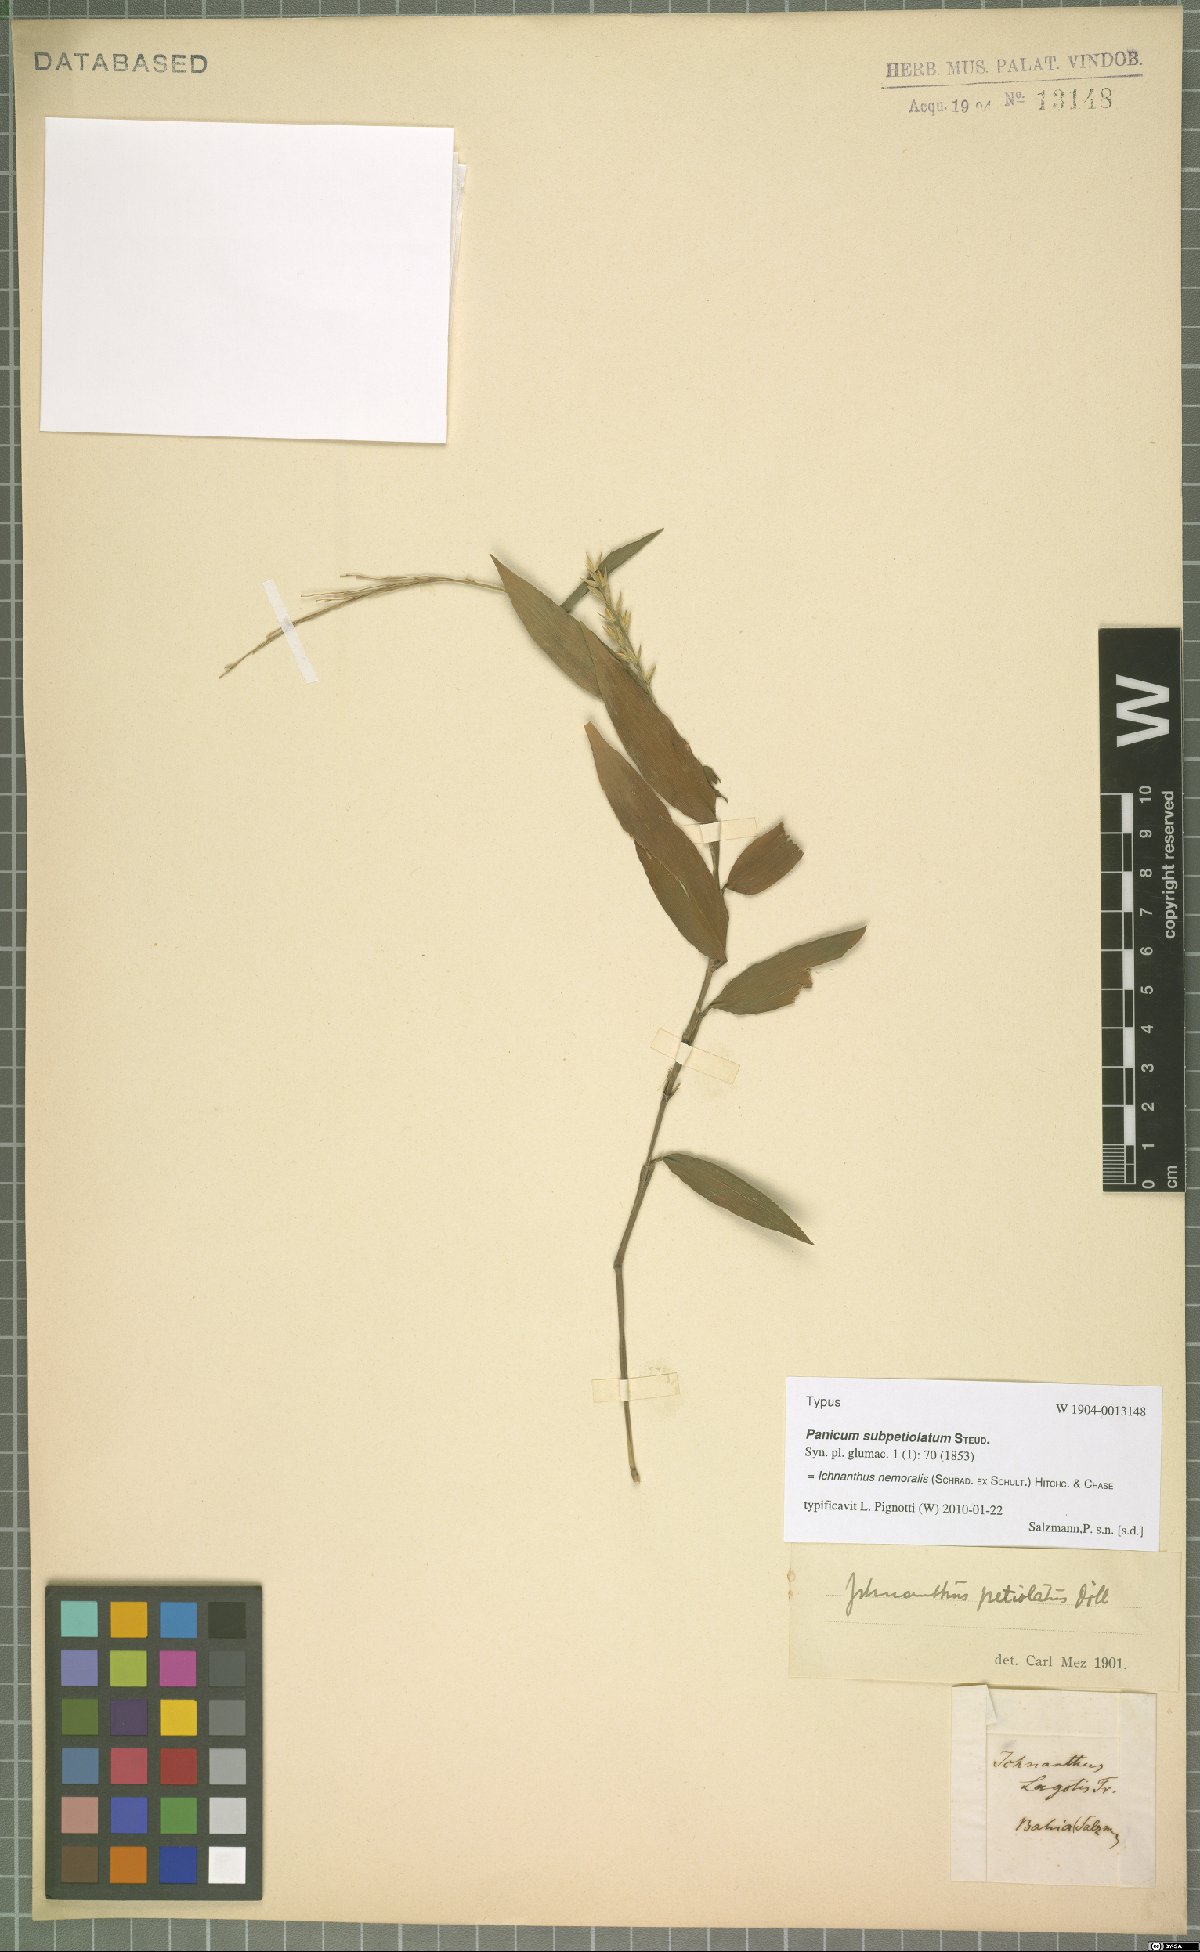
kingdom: Plantae
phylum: Tracheophyta
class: Liliopsida
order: Poales
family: Poaceae
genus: Ichnanthus
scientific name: Ichnanthus nemoralis
